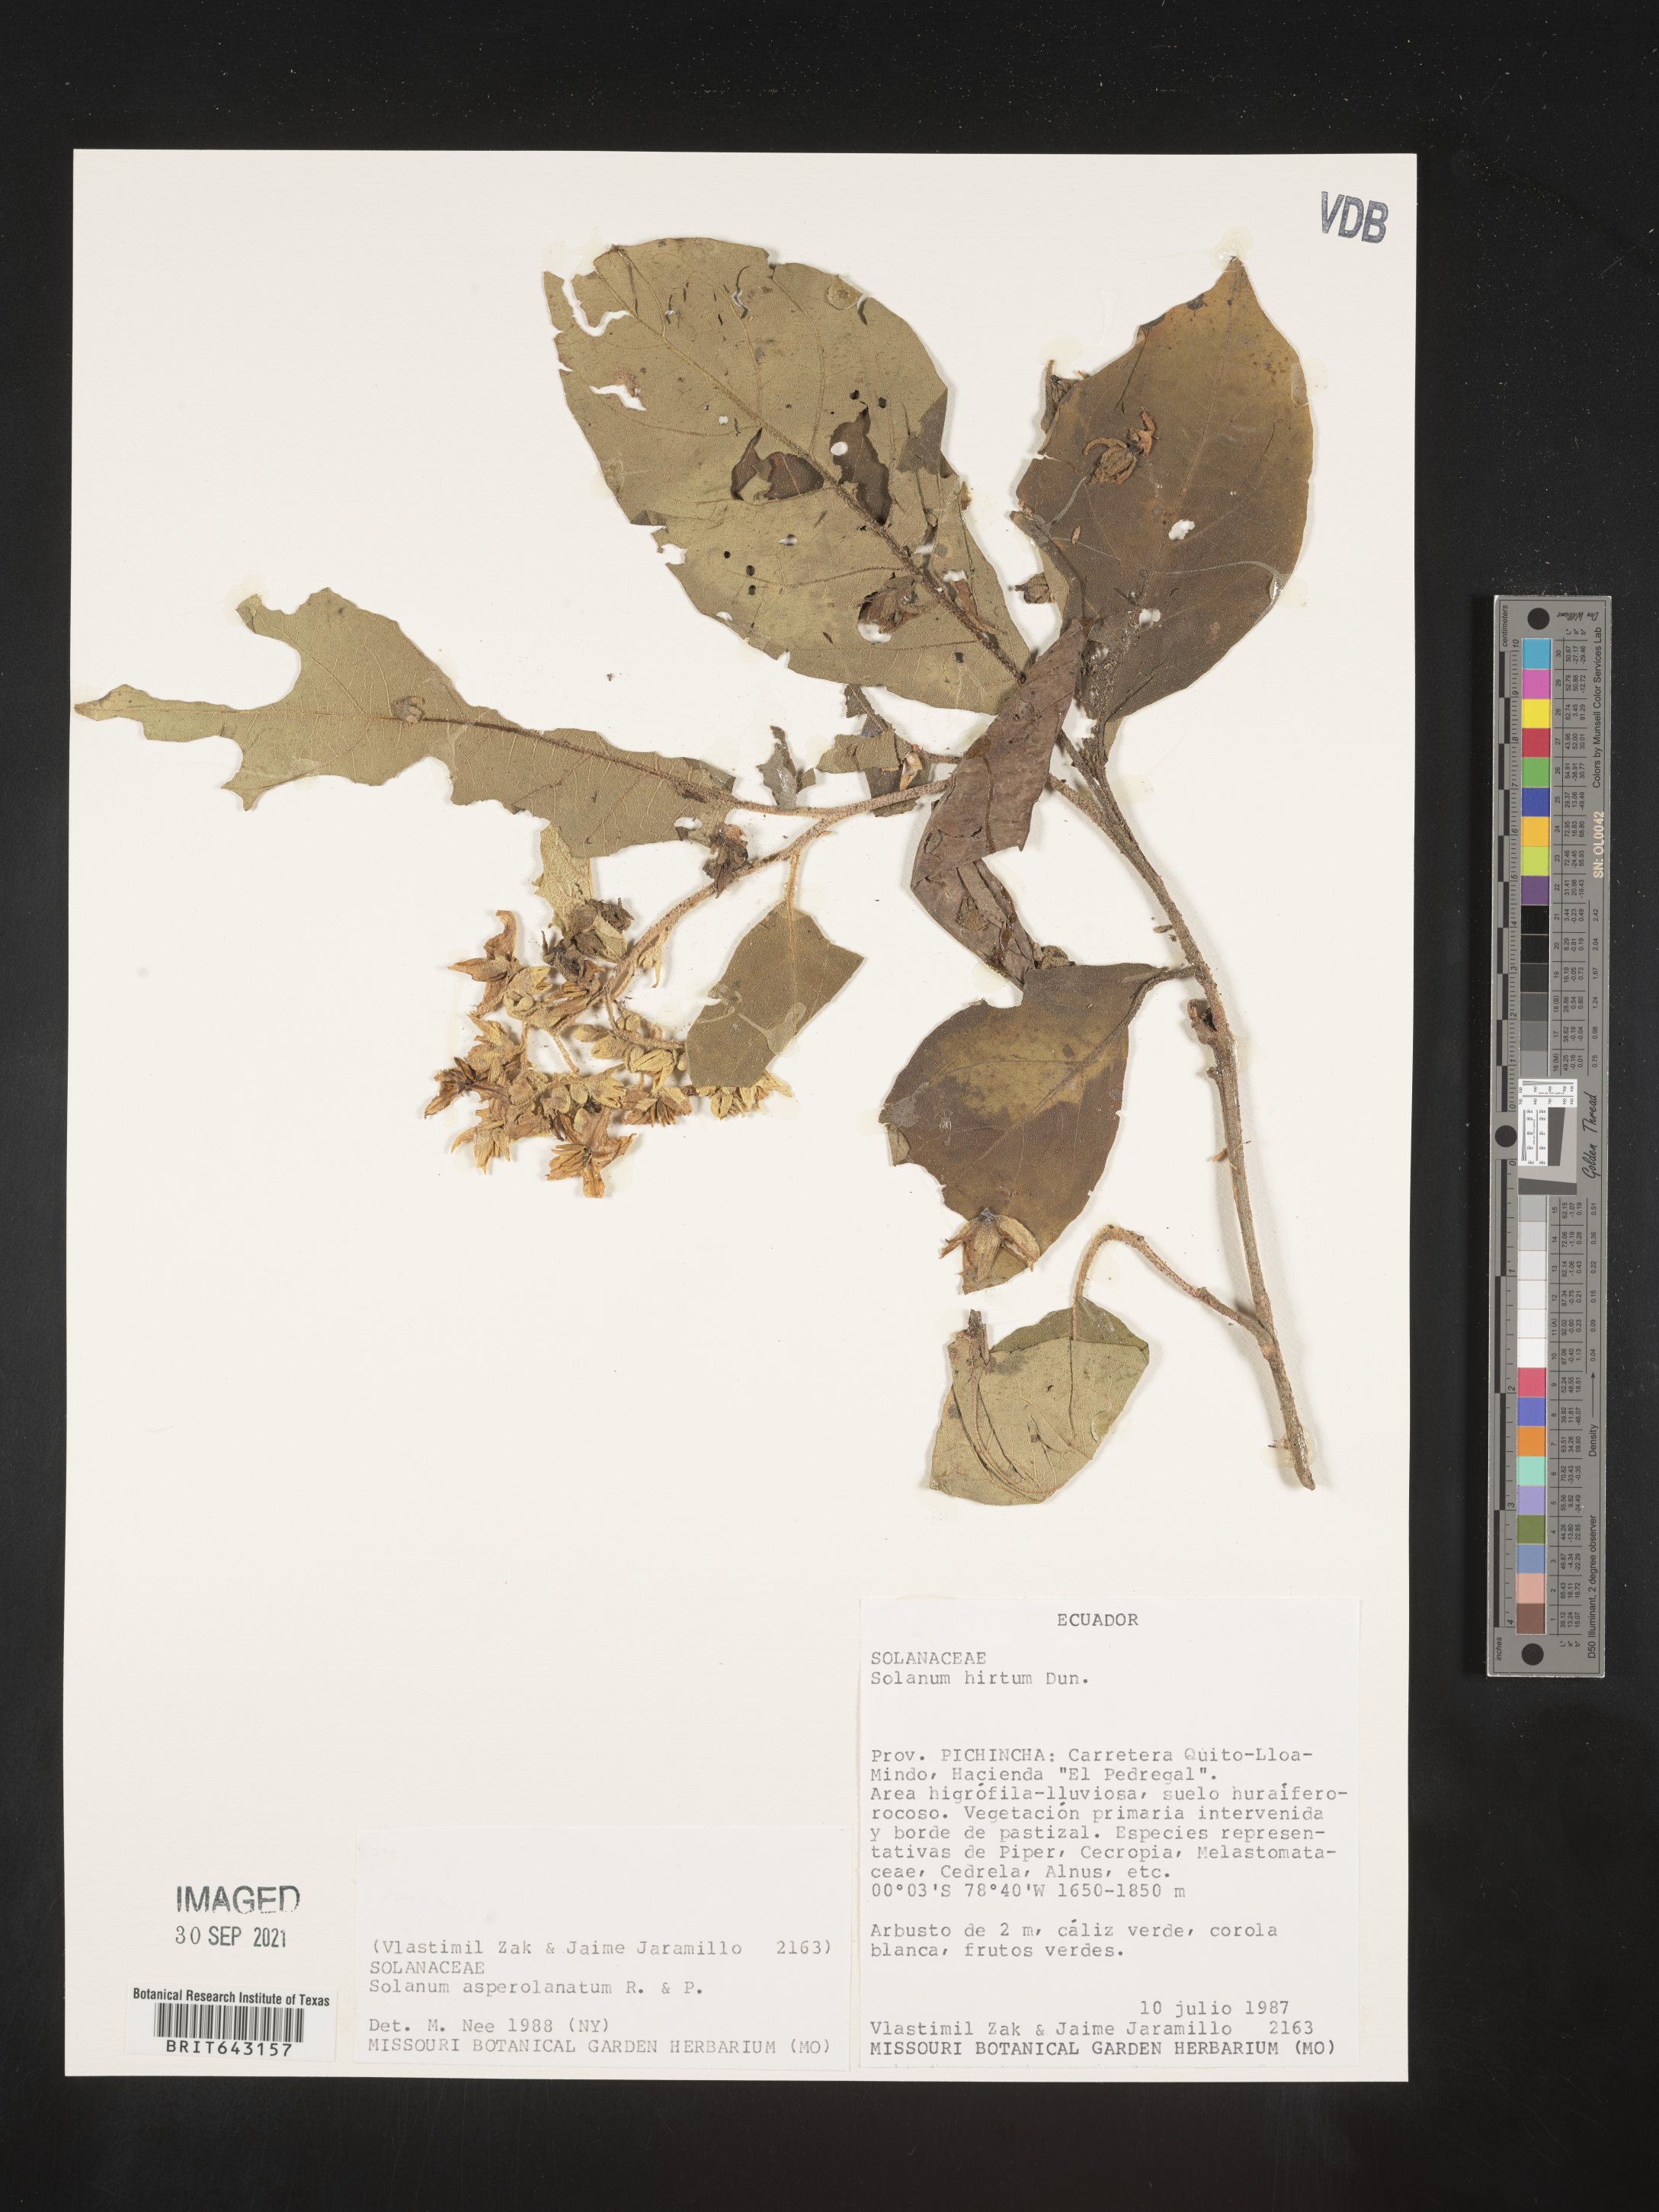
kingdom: Plantae
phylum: Tracheophyta
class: Magnoliopsida
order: Solanales
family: Solanaceae
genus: Solanum
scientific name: Solanum
